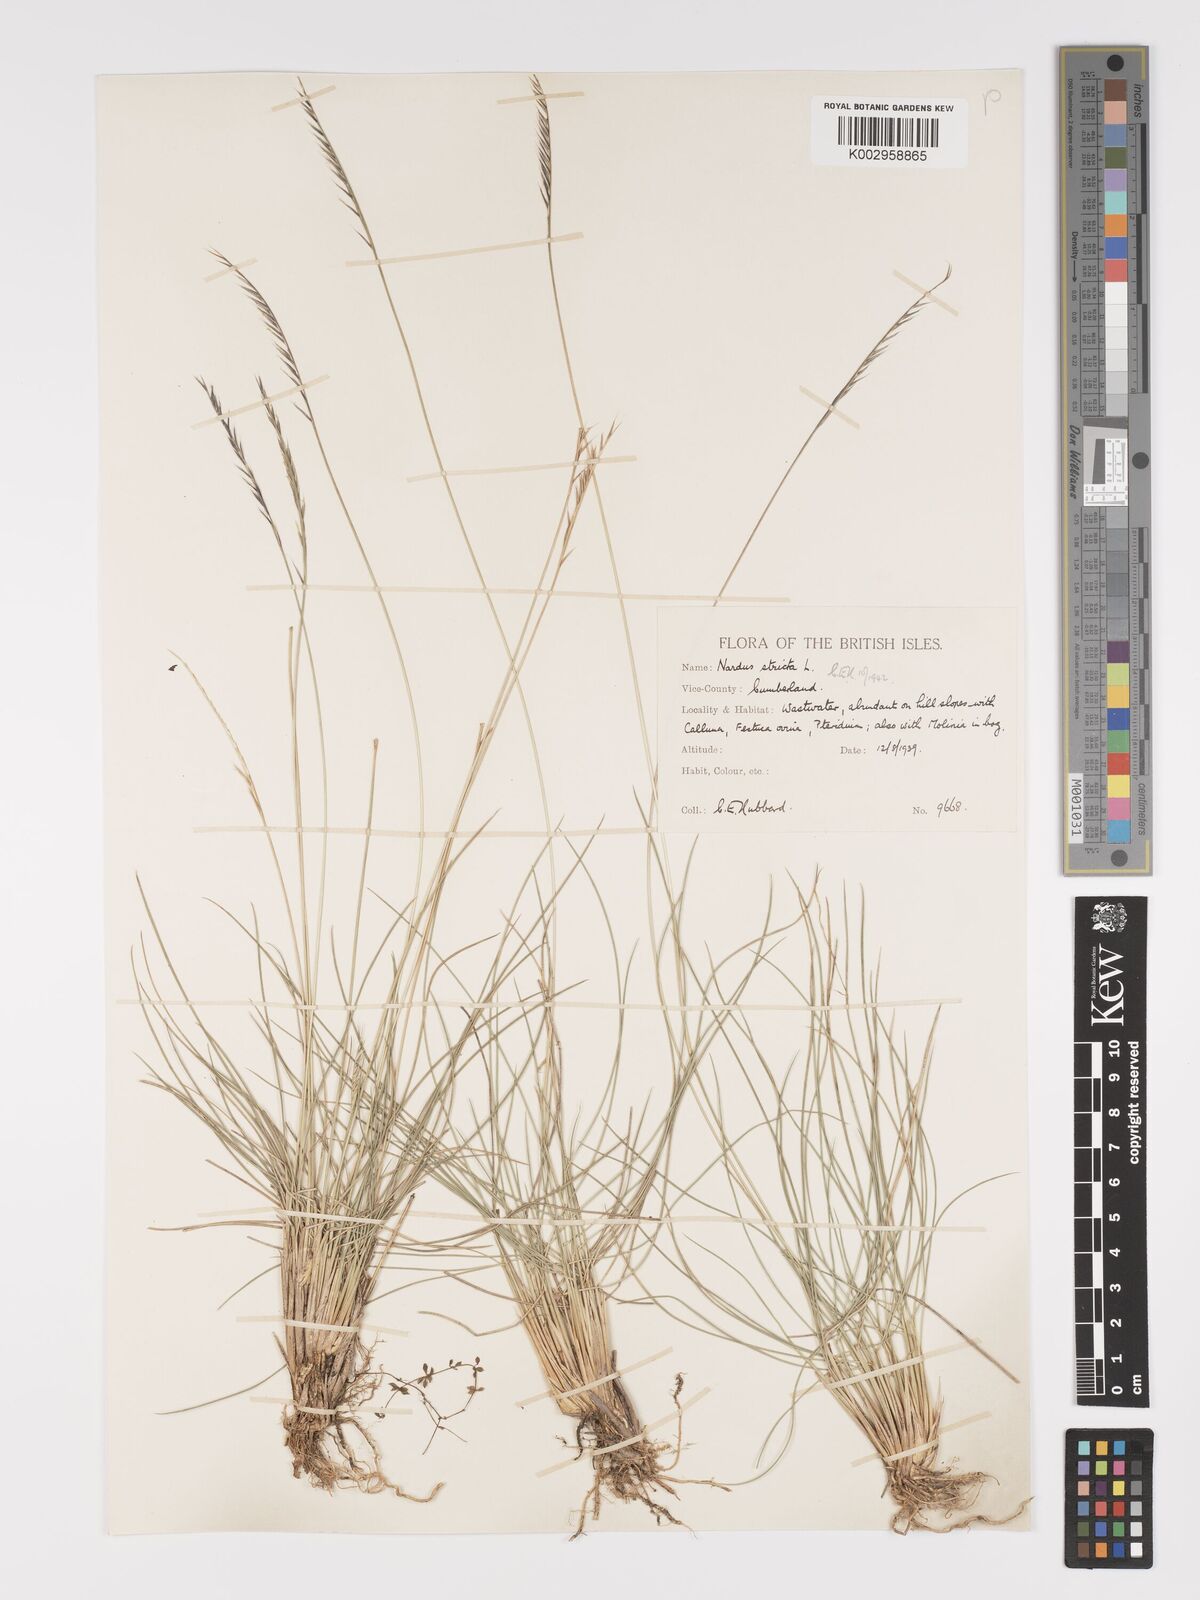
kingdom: Plantae
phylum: Tracheophyta
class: Liliopsida
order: Poales
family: Poaceae
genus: Nardus
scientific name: Nardus stricta
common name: Mat-grass
